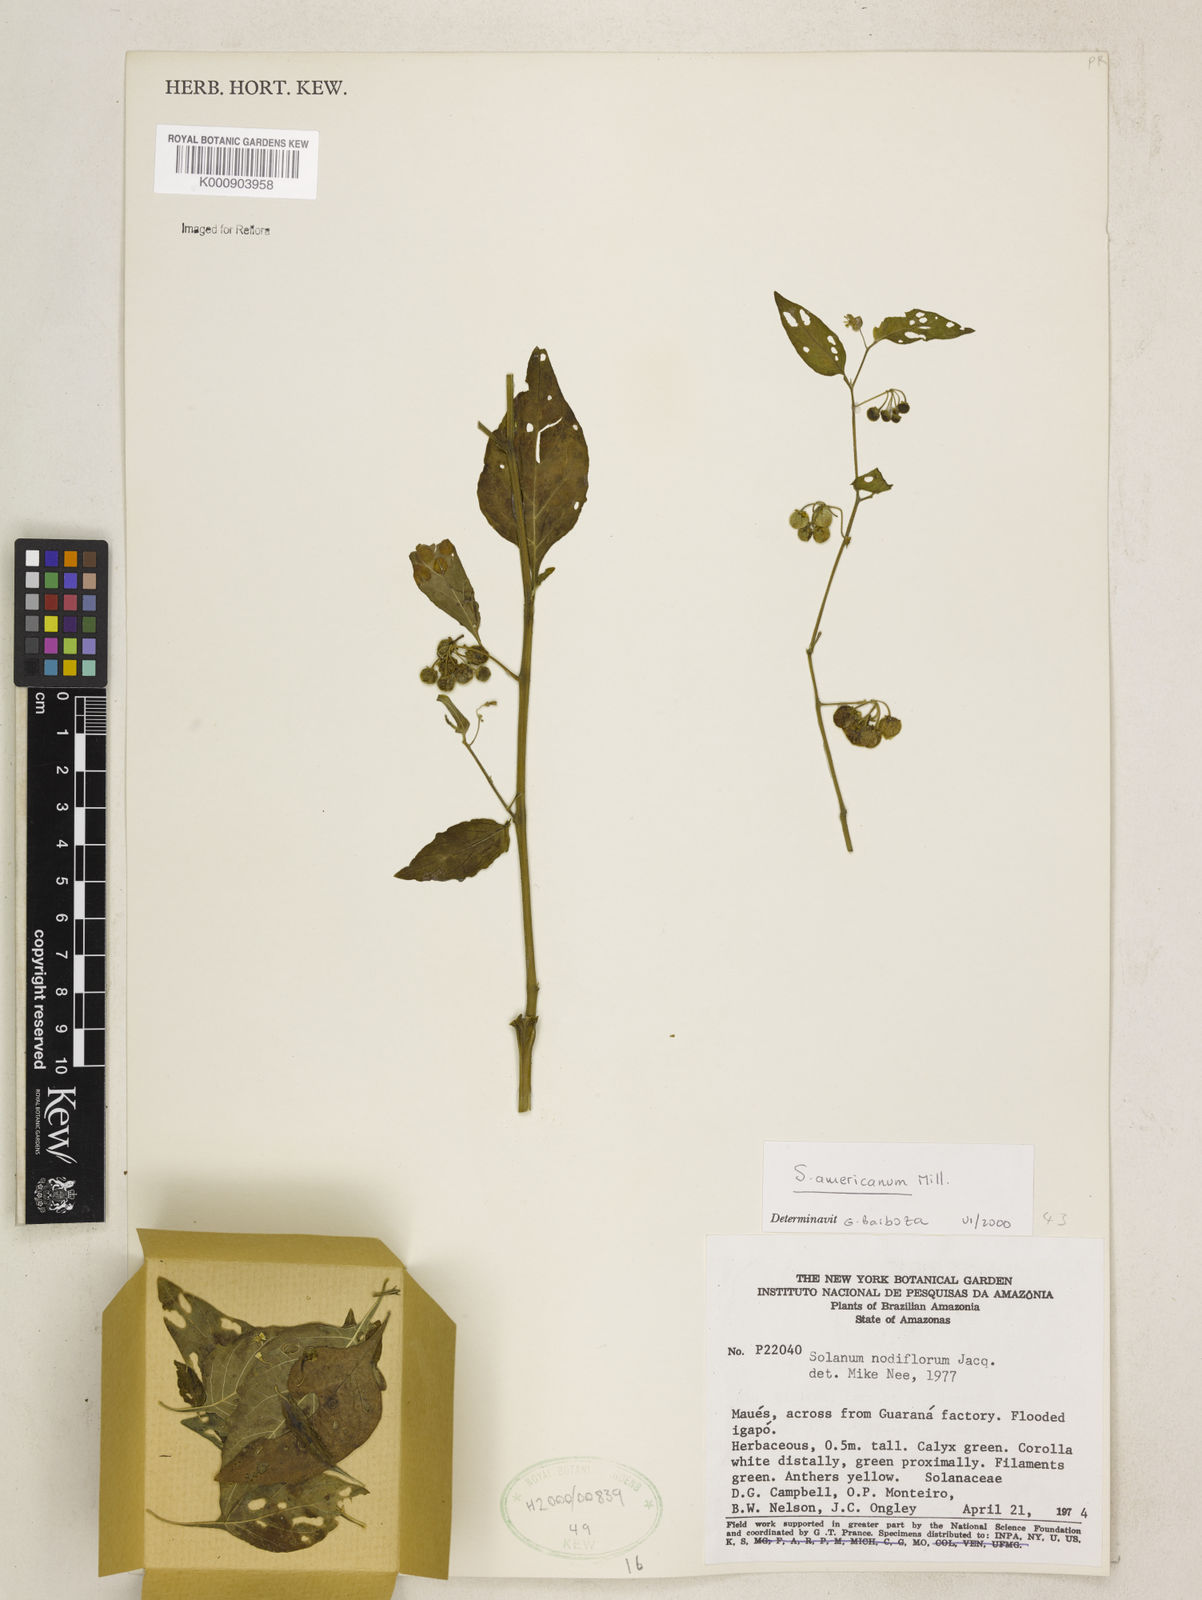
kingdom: Plantae
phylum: Tracheophyta
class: Magnoliopsida
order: Solanales
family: Solanaceae
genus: Solanum
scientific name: Solanum americanum
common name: American black nightshade
